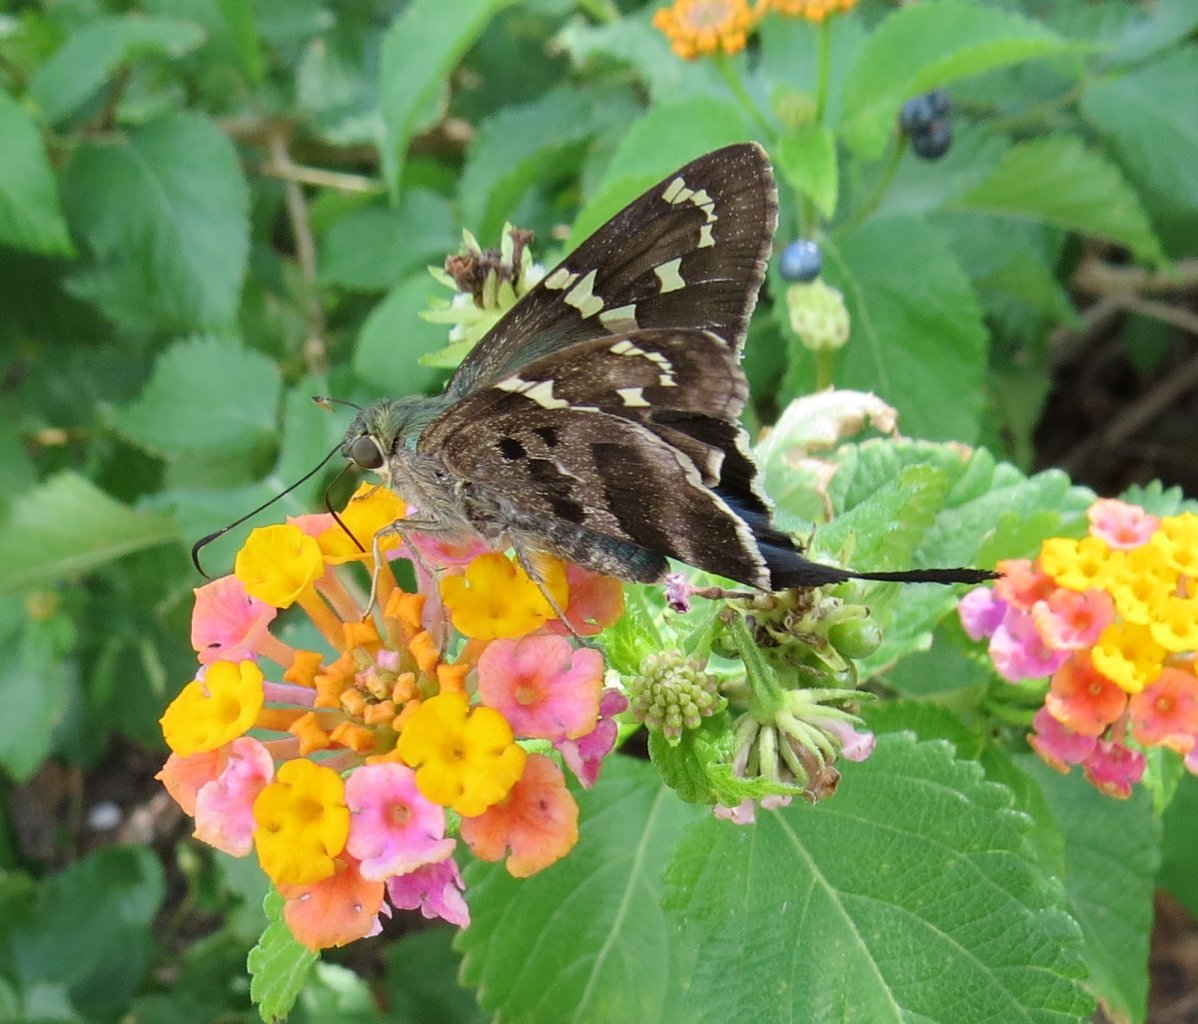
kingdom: Animalia
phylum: Arthropoda
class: Insecta
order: Lepidoptera
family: Hesperiidae
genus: Urbanus
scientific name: Urbanus proteus
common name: Long-tailed Skipper
